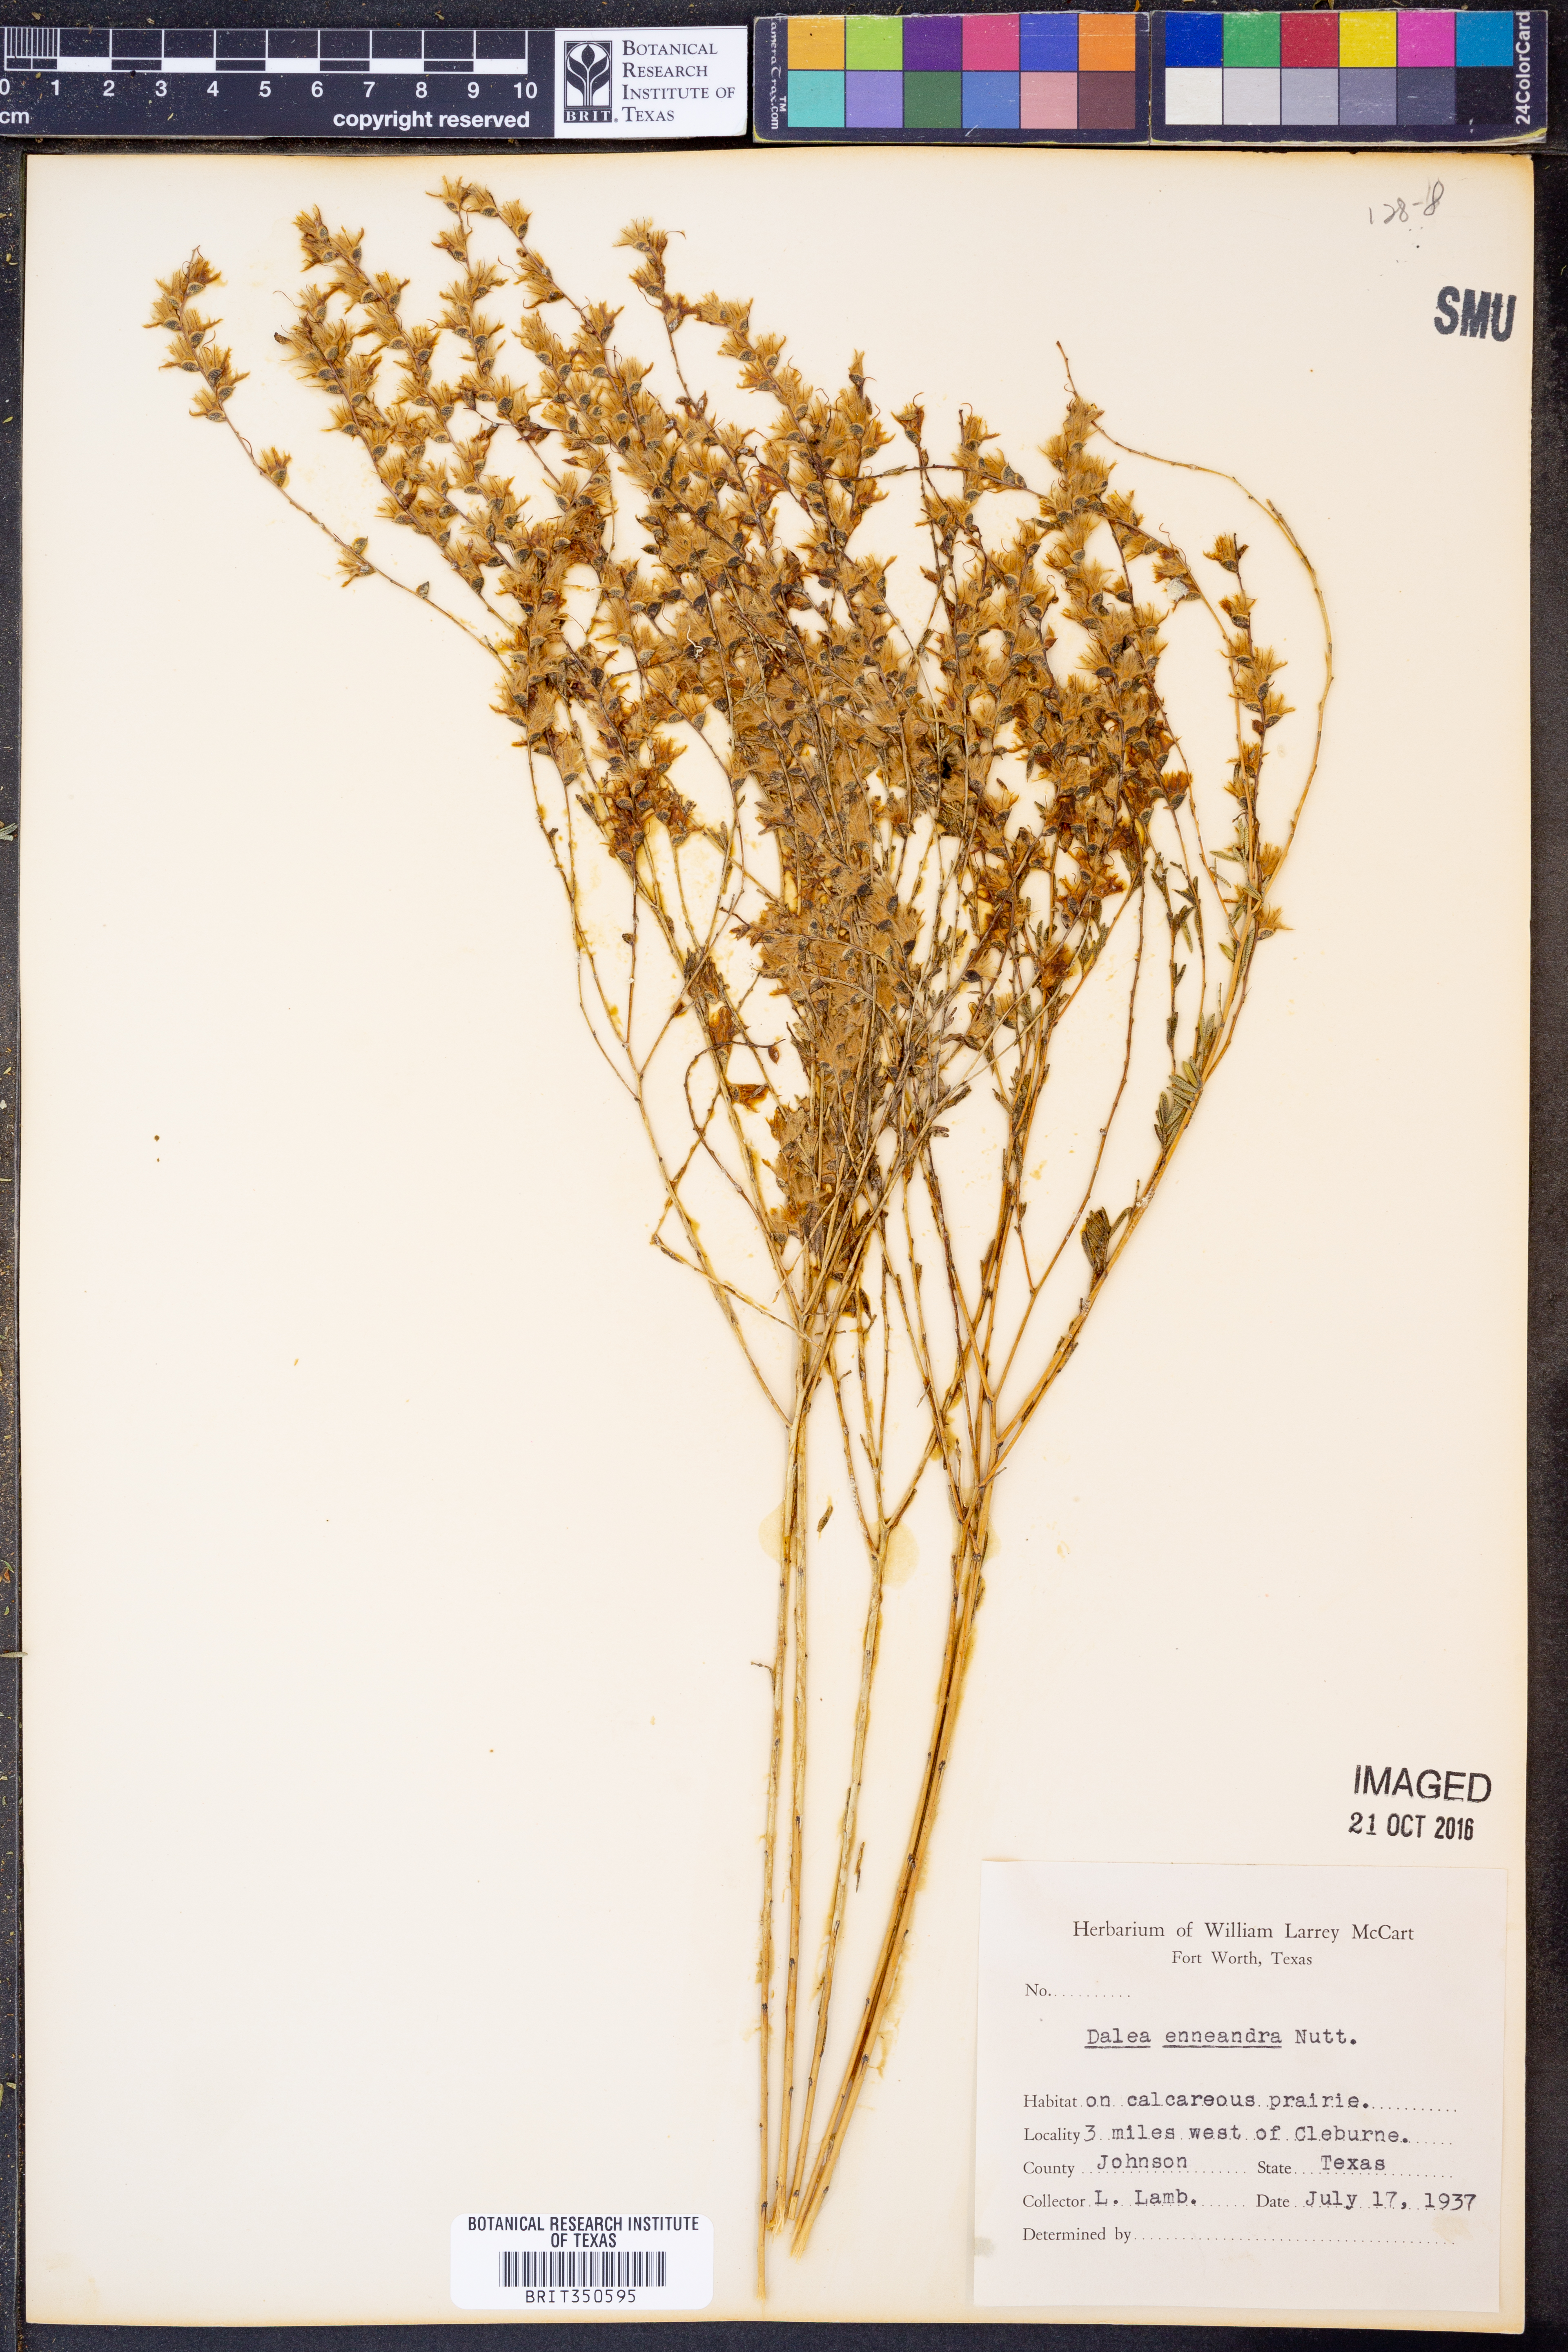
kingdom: Plantae
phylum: Tracheophyta
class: Magnoliopsida
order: Fabales
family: Fabaceae
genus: Dalea
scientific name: Dalea enneandra
